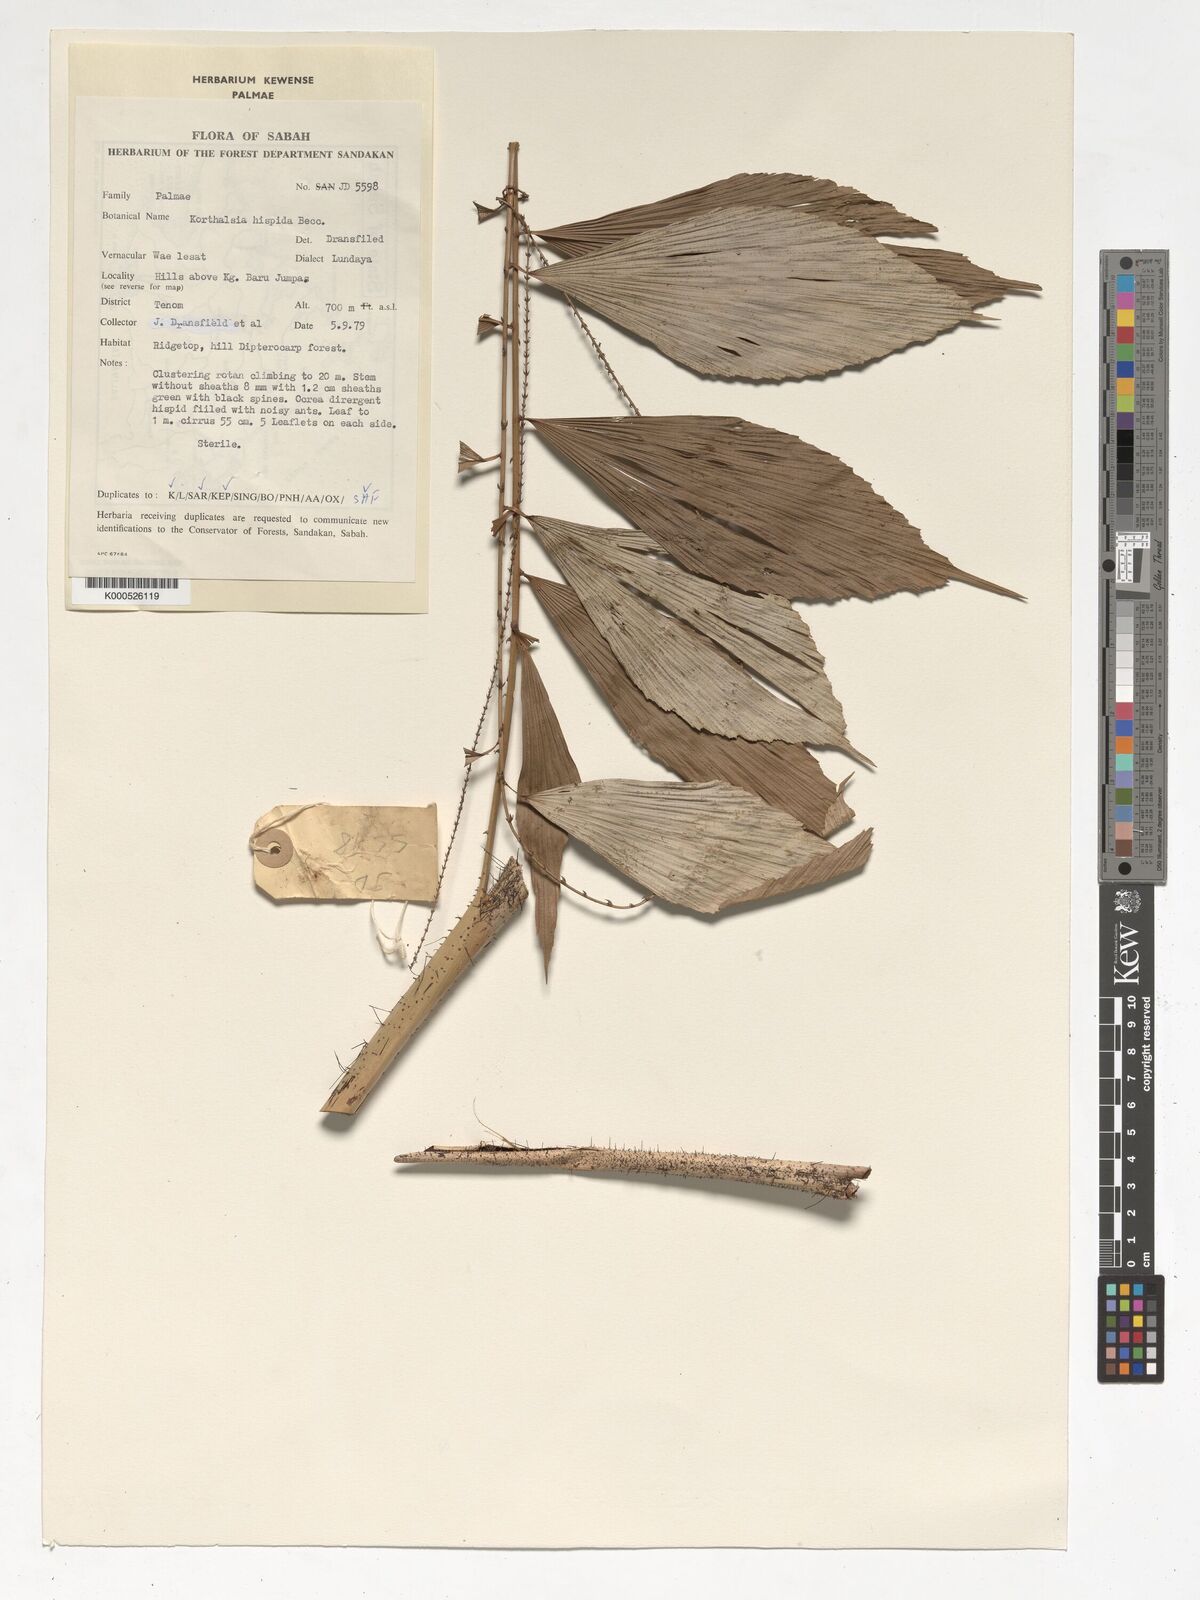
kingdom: Plantae
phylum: Tracheophyta
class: Liliopsida
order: Arecales
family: Arecaceae
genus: Korthalsia
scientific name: Korthalsia hispida
